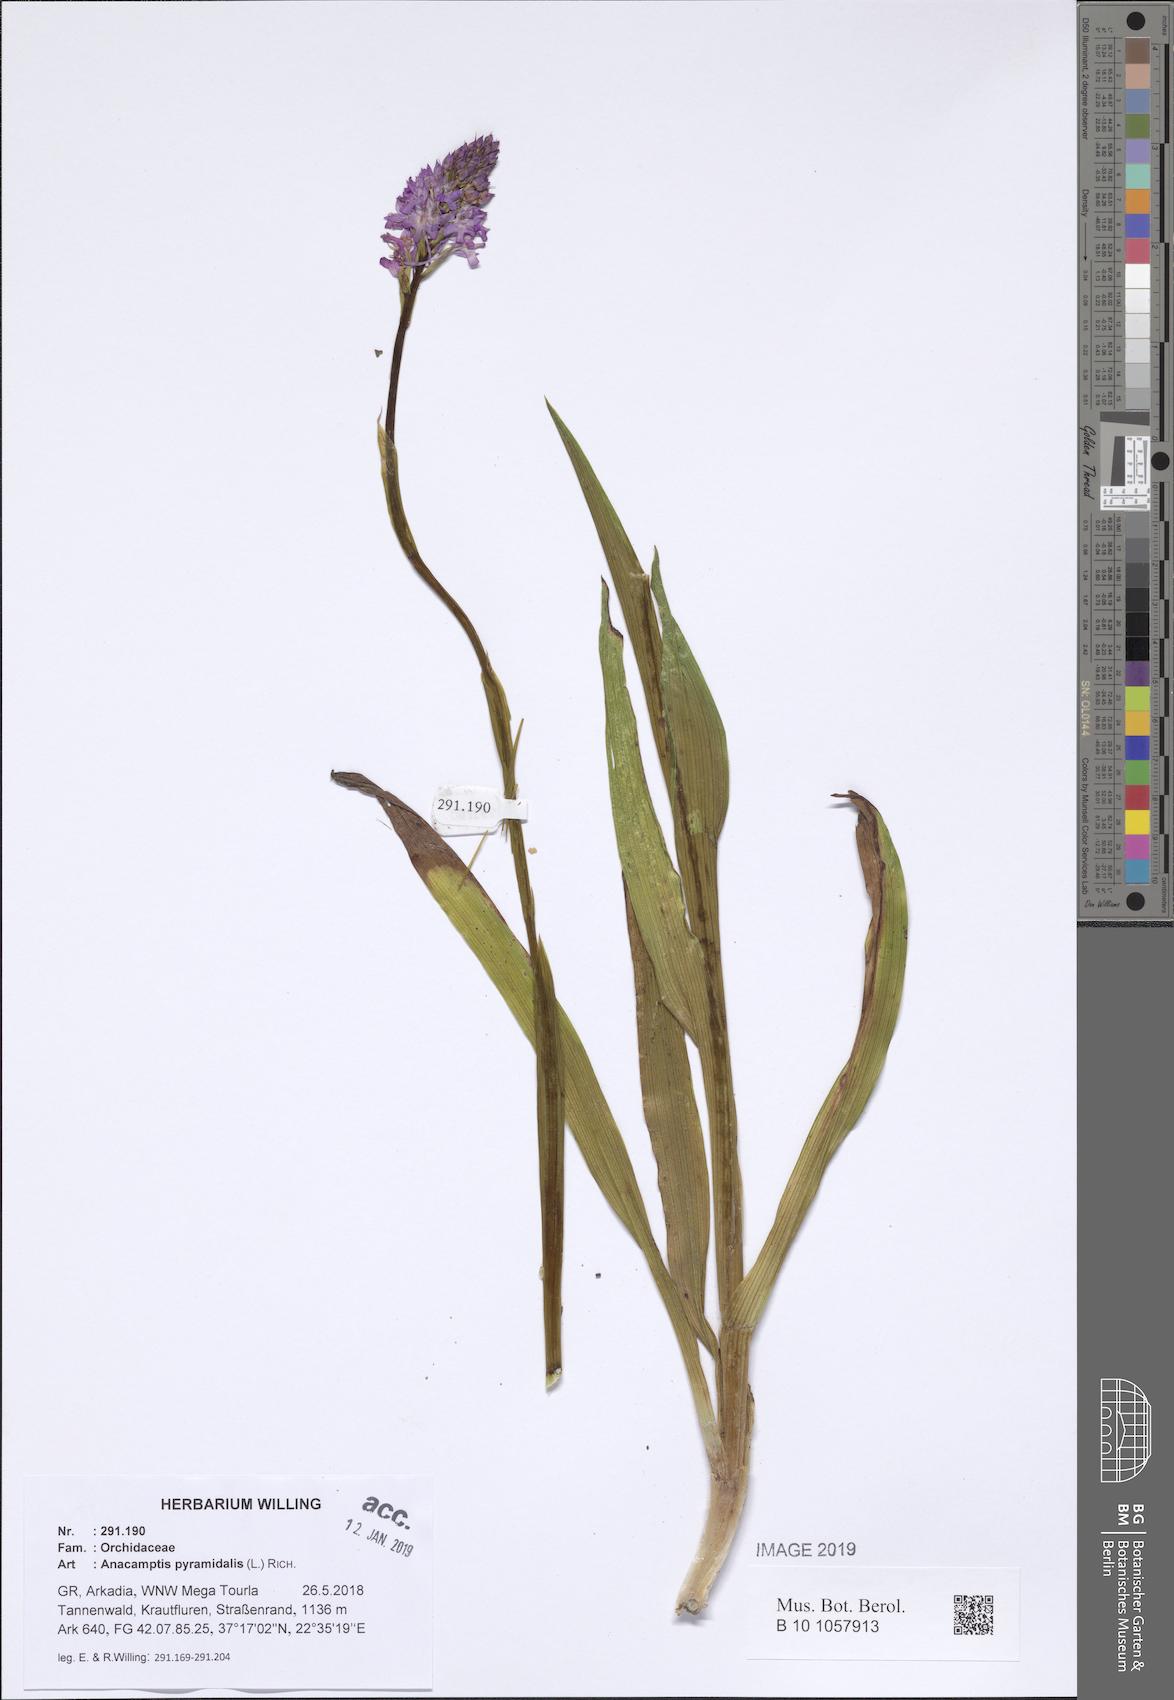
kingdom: Plantae
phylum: Tracheophyta
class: Liliopsida
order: Asparagales
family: Orchidaceae
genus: Anacamptis
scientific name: Anacamptis pyramidalis
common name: Pyramidal orchid
